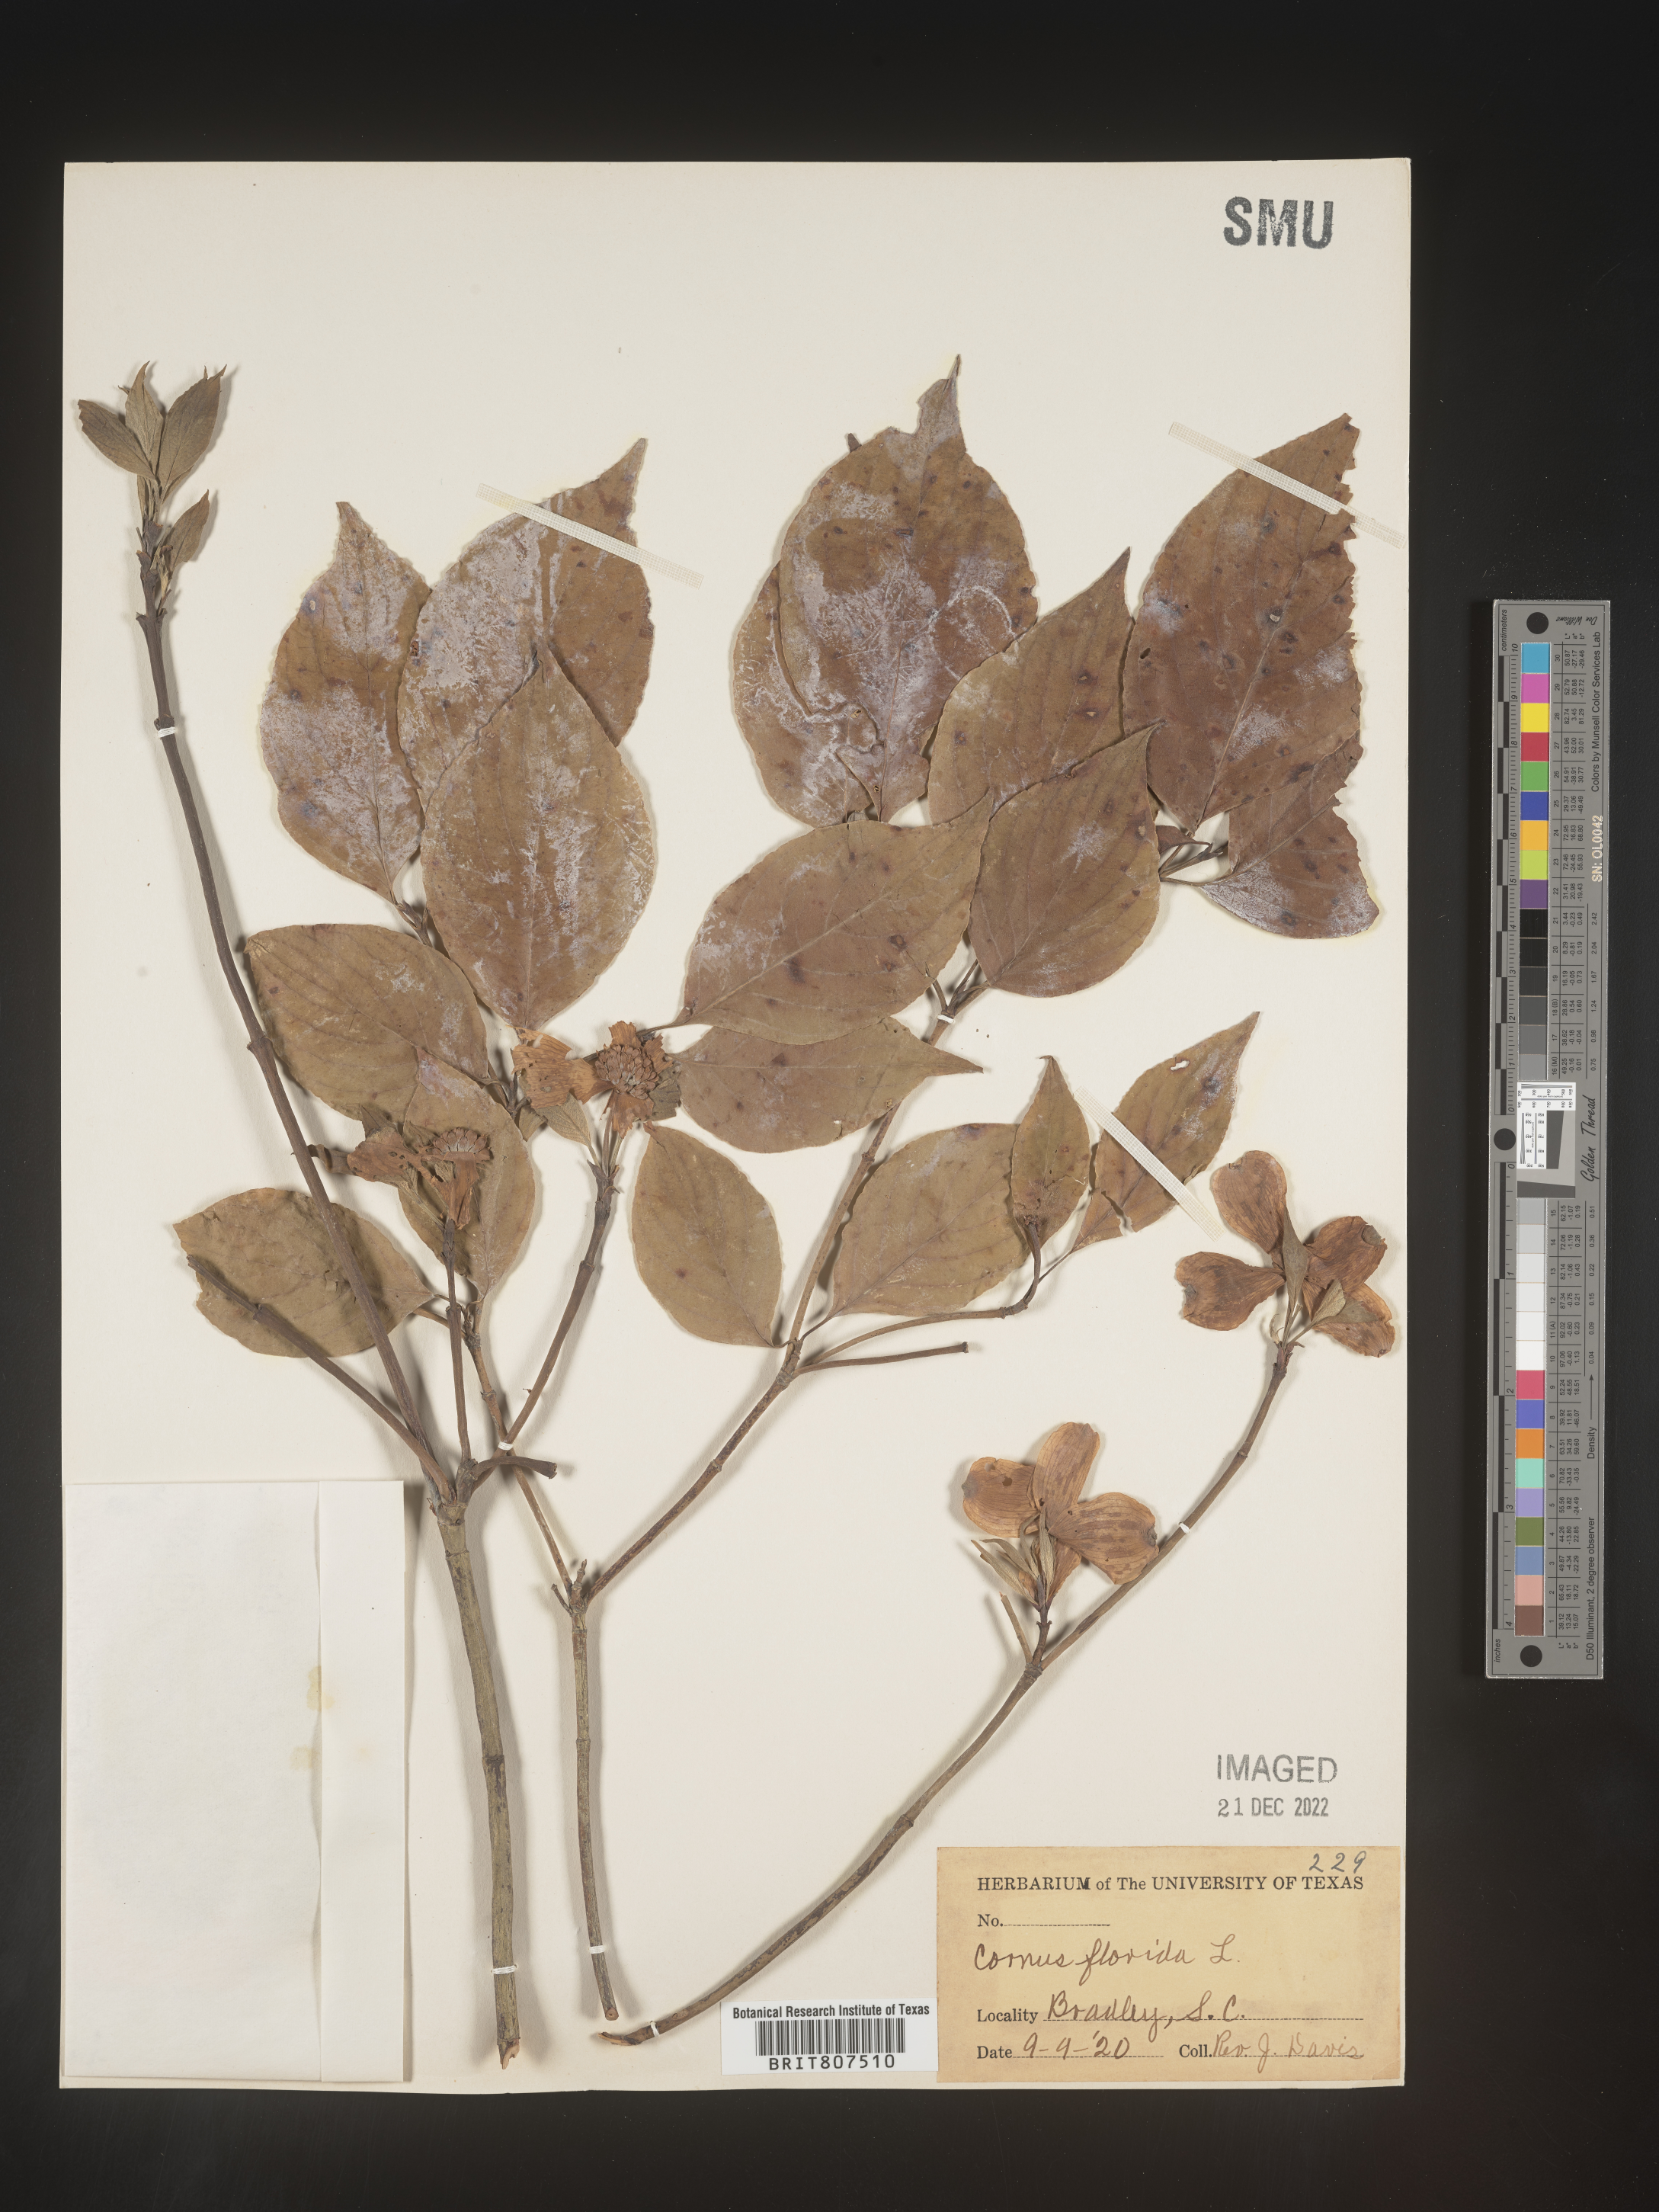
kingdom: Plantae
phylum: Tracheophyta
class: Magnoliopsida
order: Cornales
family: Cornaceae
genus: Cornus
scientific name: Cornus florida
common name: Flowering dogwood
